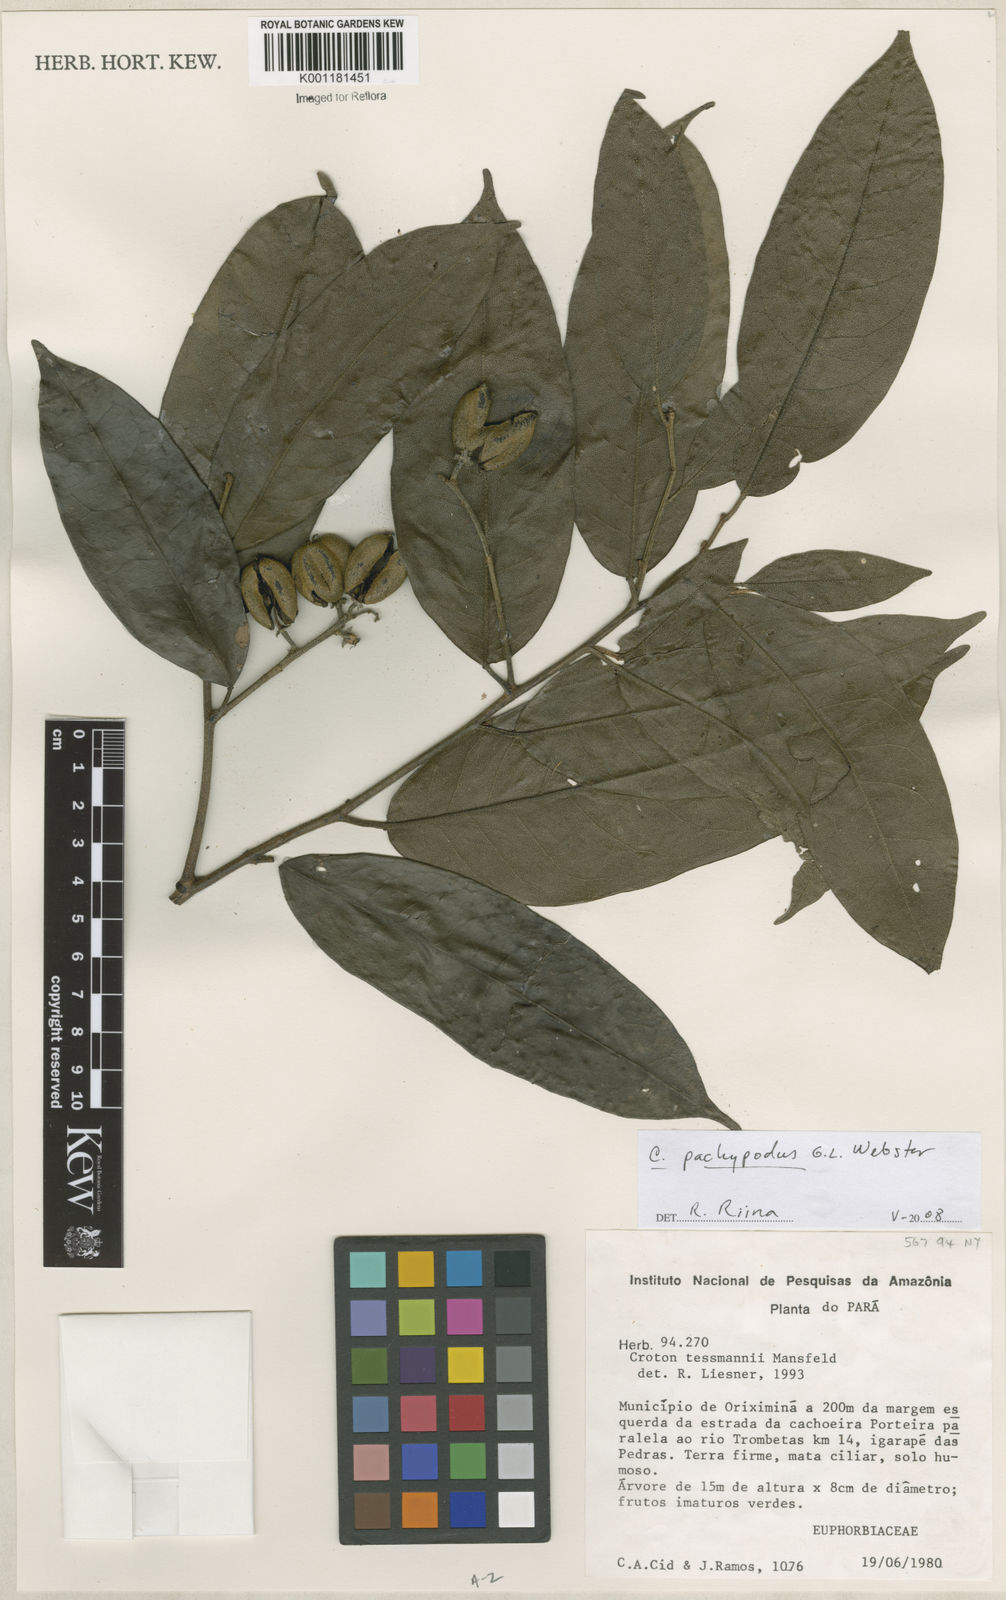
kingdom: Plantae
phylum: Tracheophyta
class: Magnoliopsida
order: Malpighiales
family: Euphorbiaceae
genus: Croton
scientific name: Croton pachypodus
